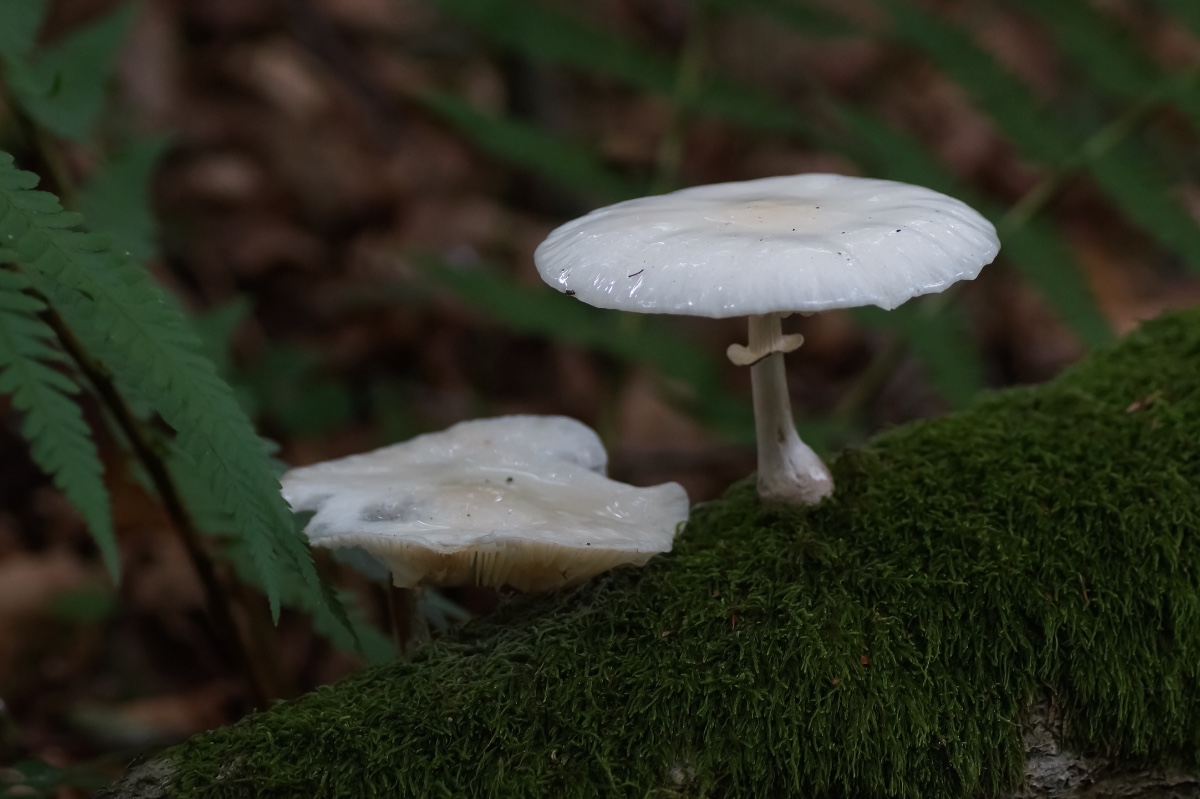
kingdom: Fungi
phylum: Basidiomycota
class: Agaricomycetes
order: Agaricales
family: Physalacriaceae
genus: Mucidula
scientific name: Mucidula mucida
